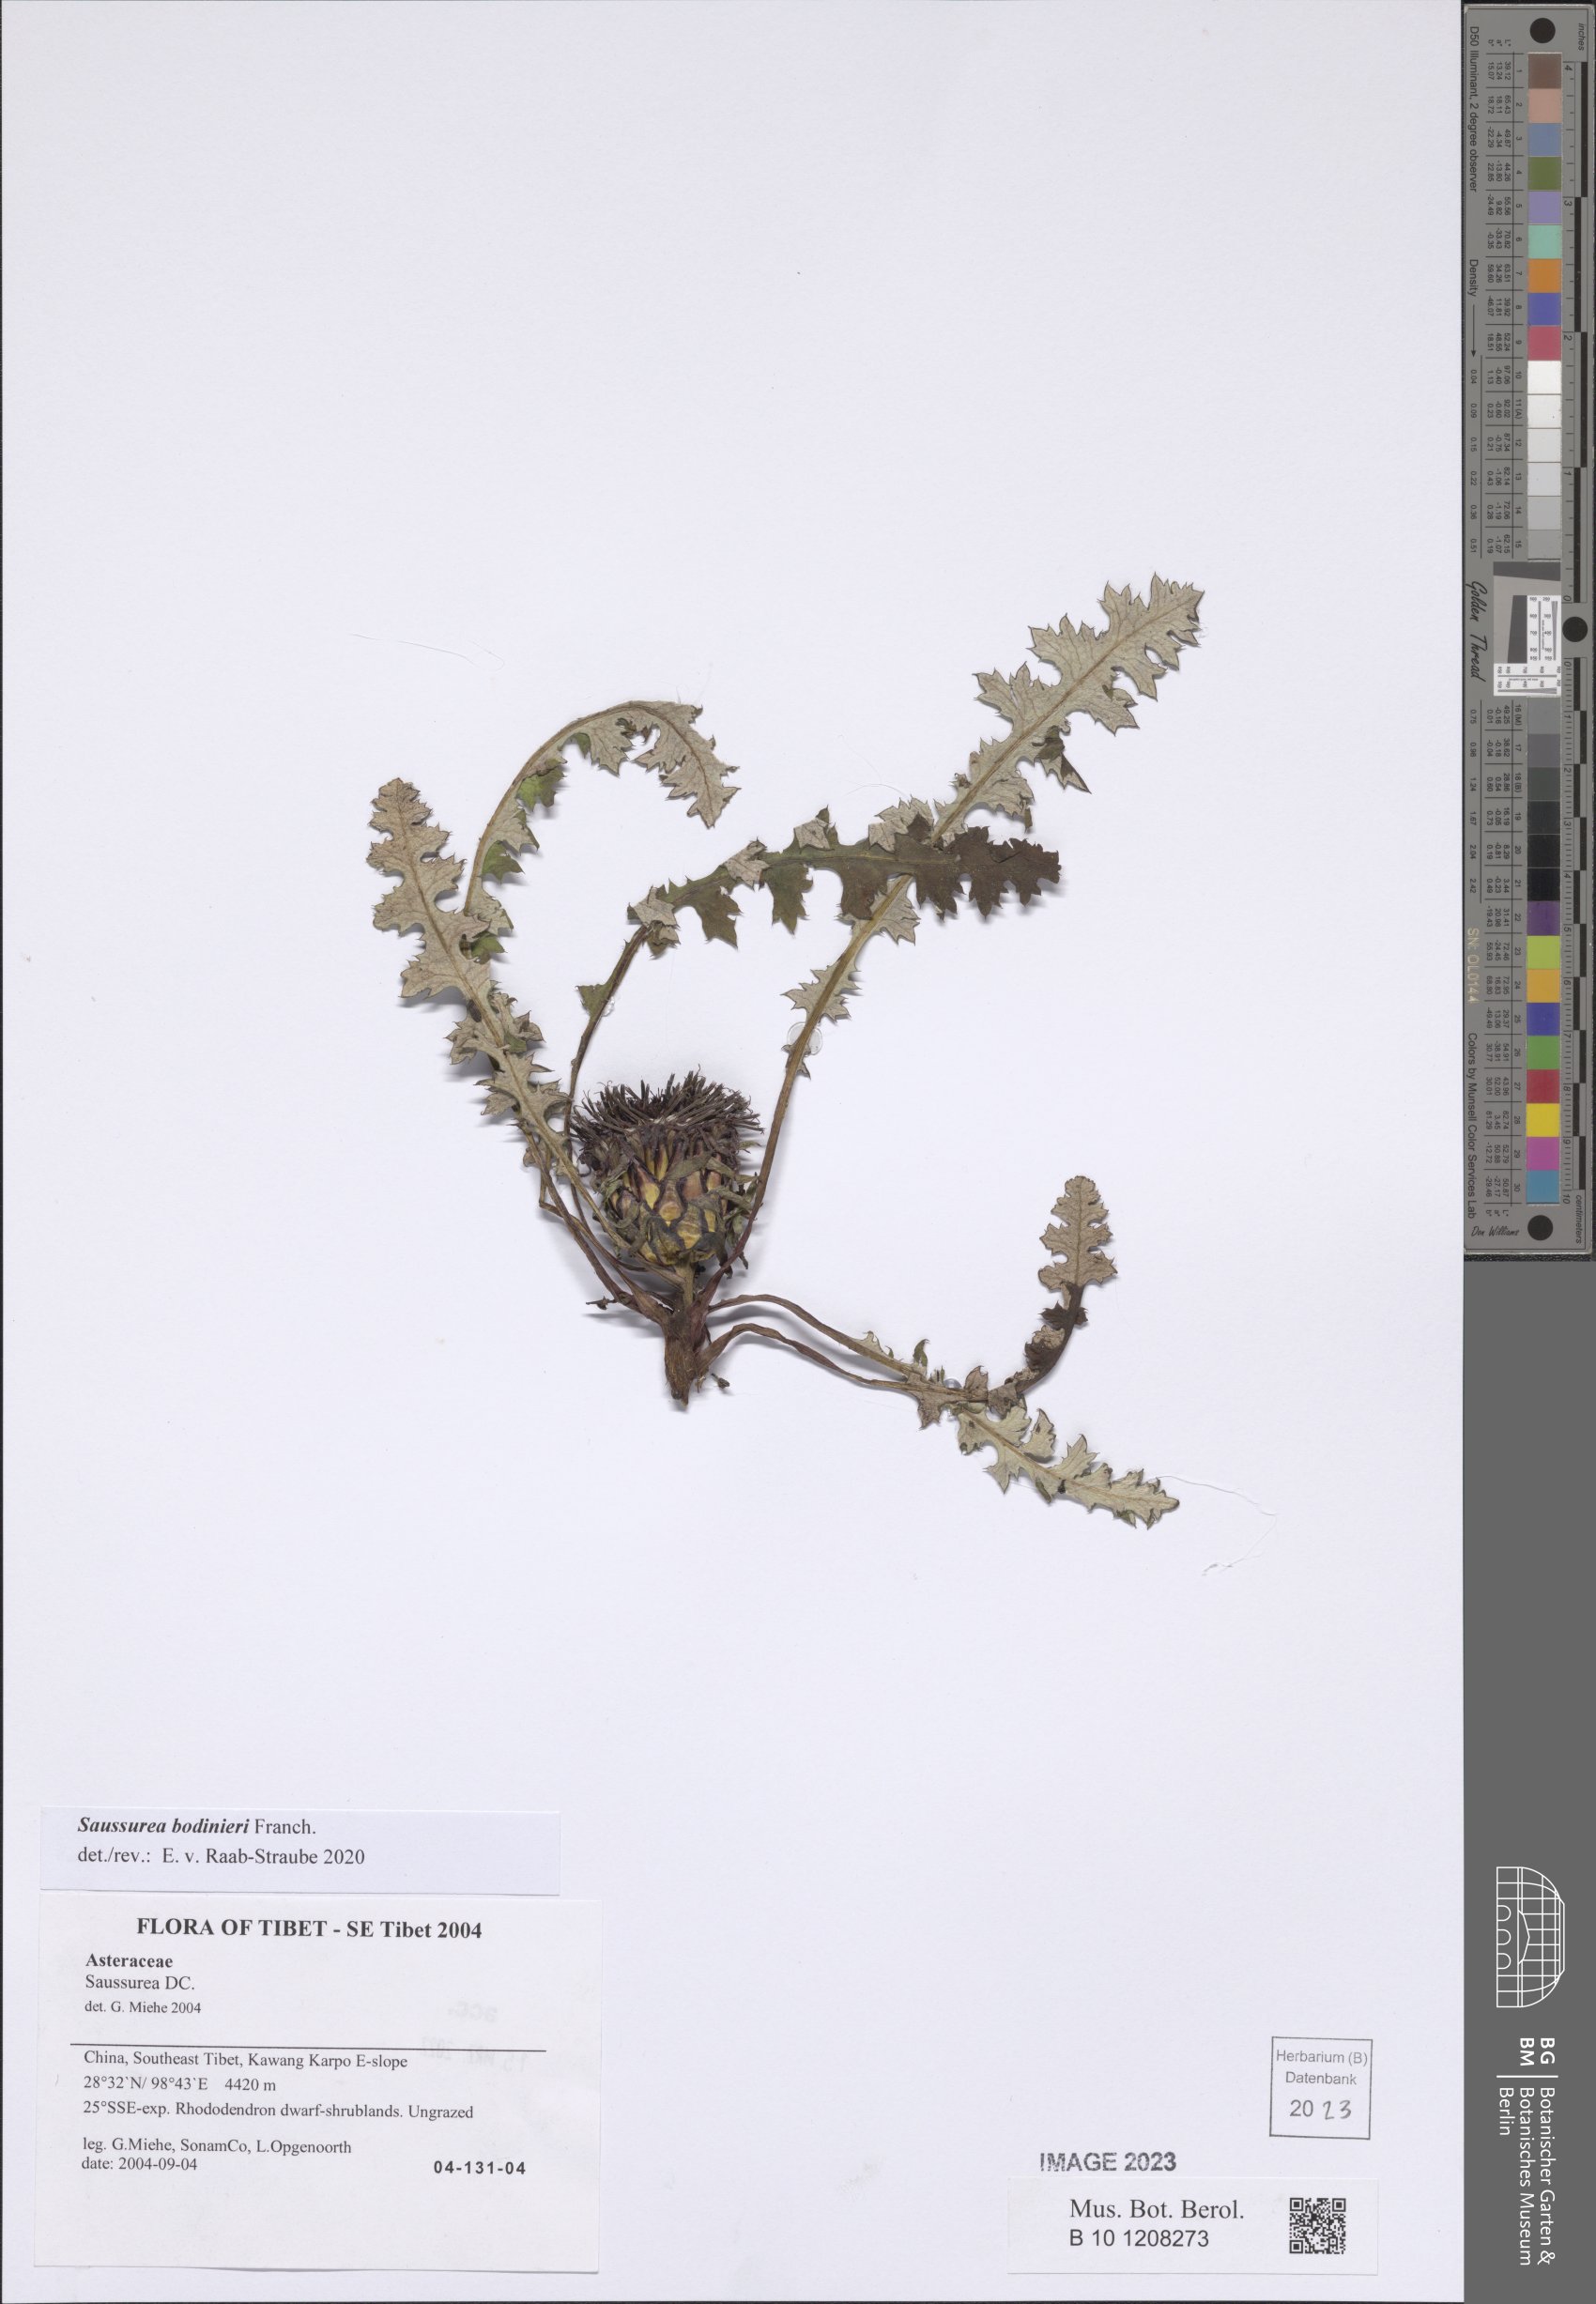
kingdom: Plantae
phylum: Tracheophyta
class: Magnoliopsida
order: Asterales
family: Asteraceae
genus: Saussurea
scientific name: Saussurea pachyneura
